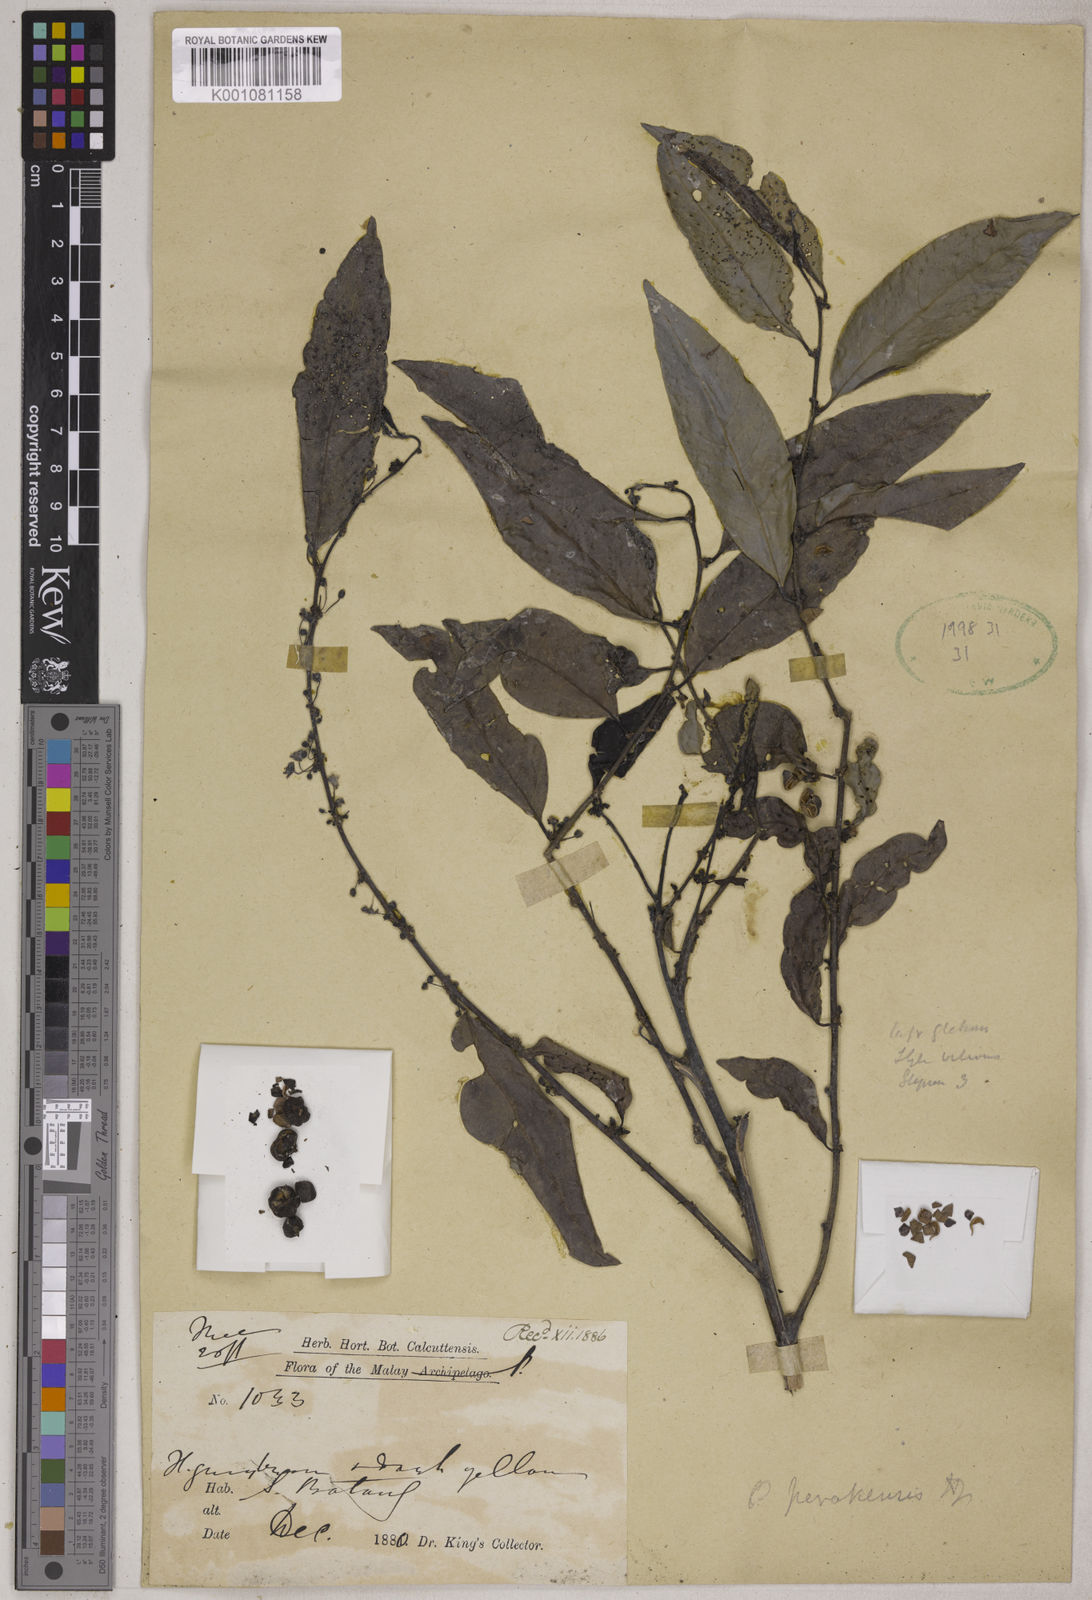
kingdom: Plantae
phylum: Tracheophyta
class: Magnoliopsida
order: Malpighiales
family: Phyllanthaceae
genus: Glochidion
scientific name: Glochidion zeylanicum
